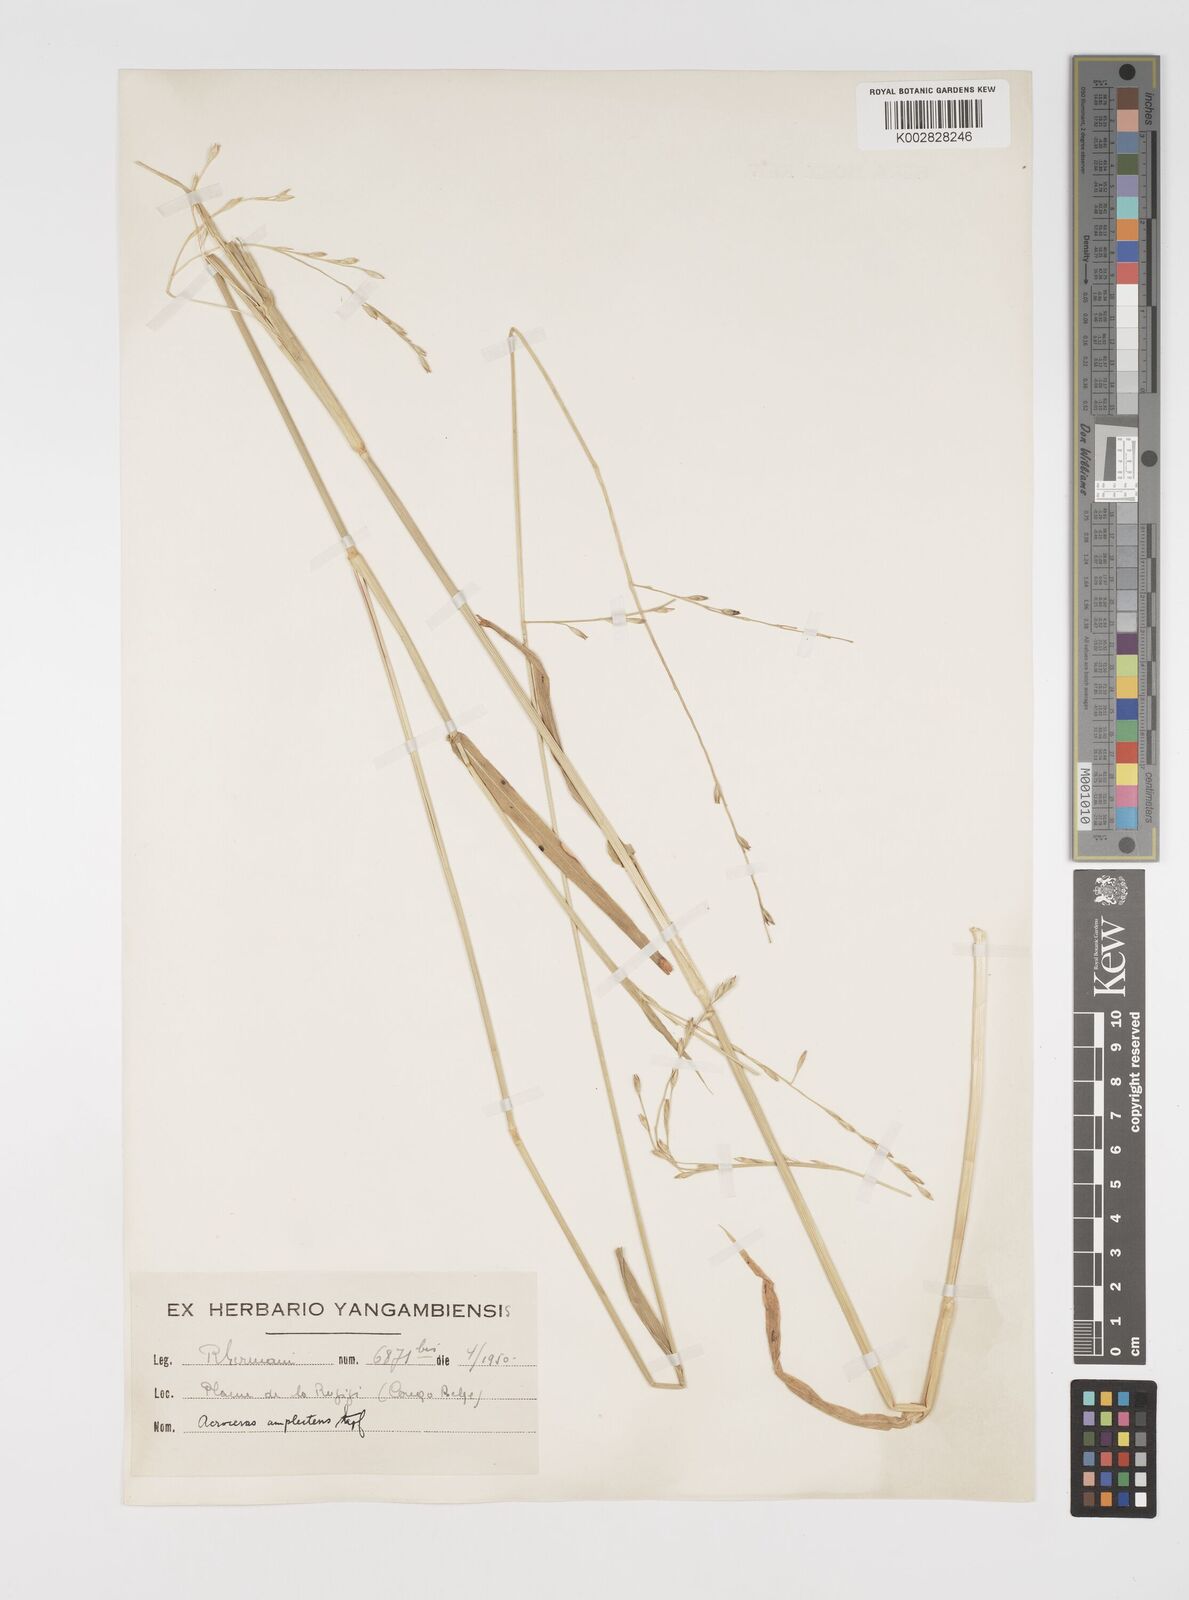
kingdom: Plantae
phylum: Tracheophyta
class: Liliopsida
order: Poales
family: Poaceae
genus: Acroceras
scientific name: Acroceras amplectens
